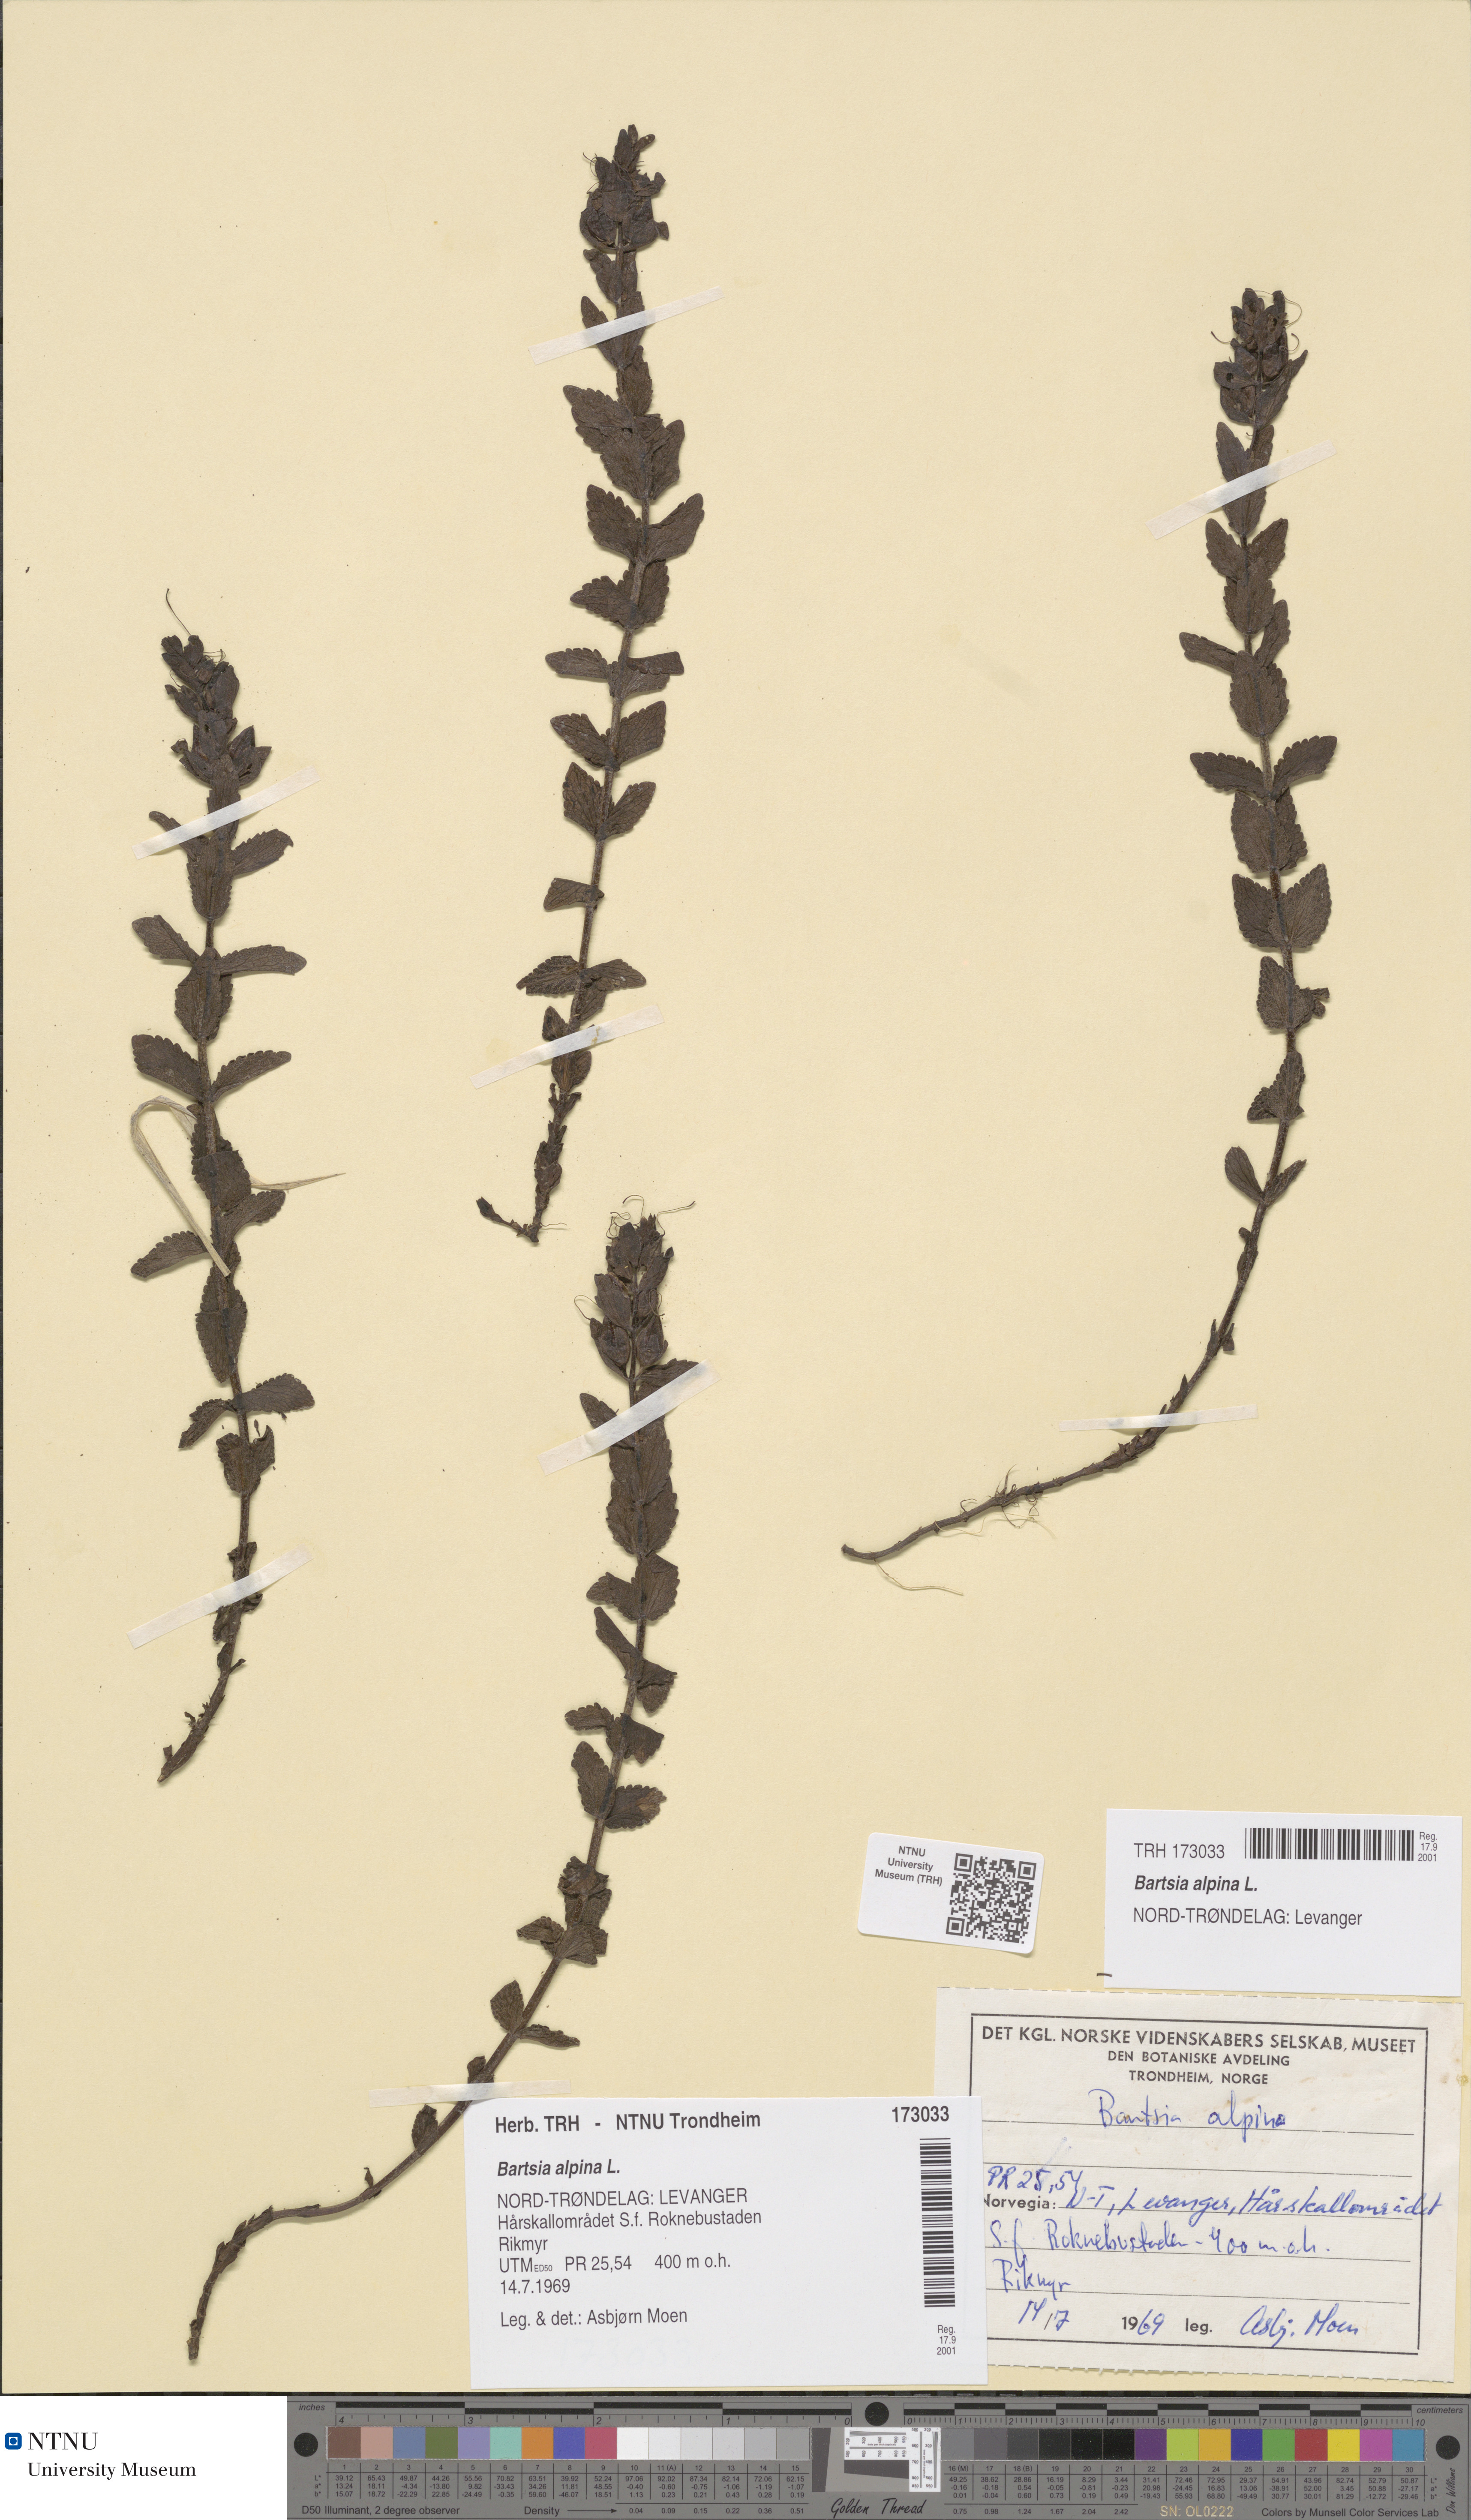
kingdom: Plantae
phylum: Tracheophyta
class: Magnoliopsida
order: Lamiales
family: Orobanchaceae
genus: Bartsia
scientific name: Bartsia alpina
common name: Alpine bartsia
